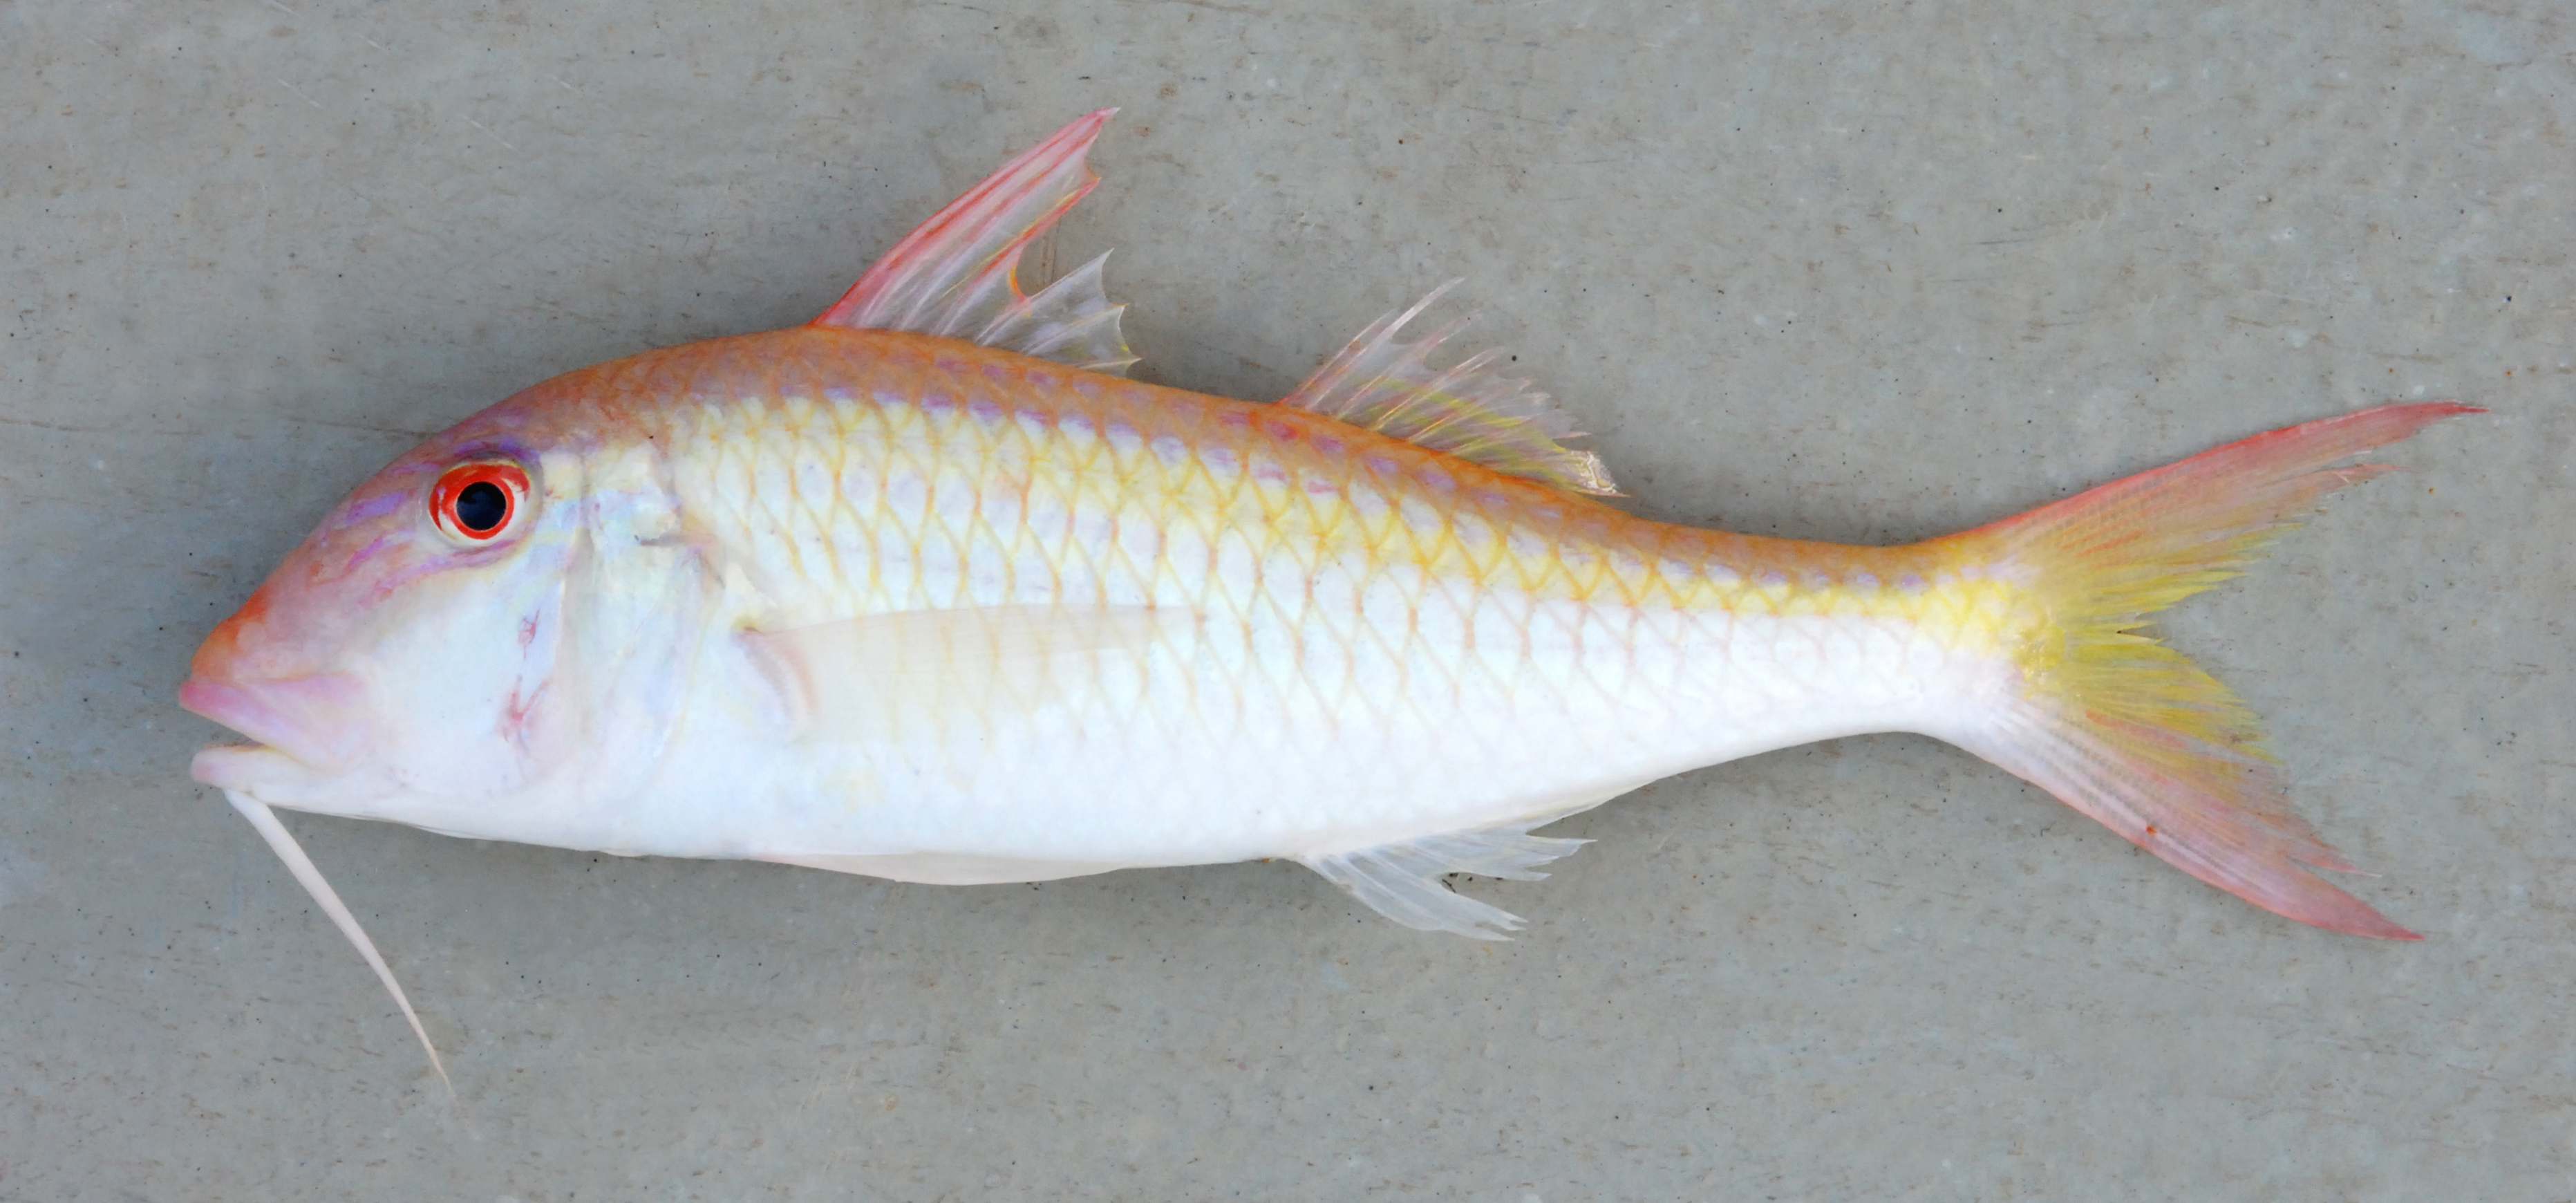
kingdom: Animalia
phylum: Chordata
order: Perciformes
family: Mullidae
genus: Parupeneus
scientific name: Parupeneus
